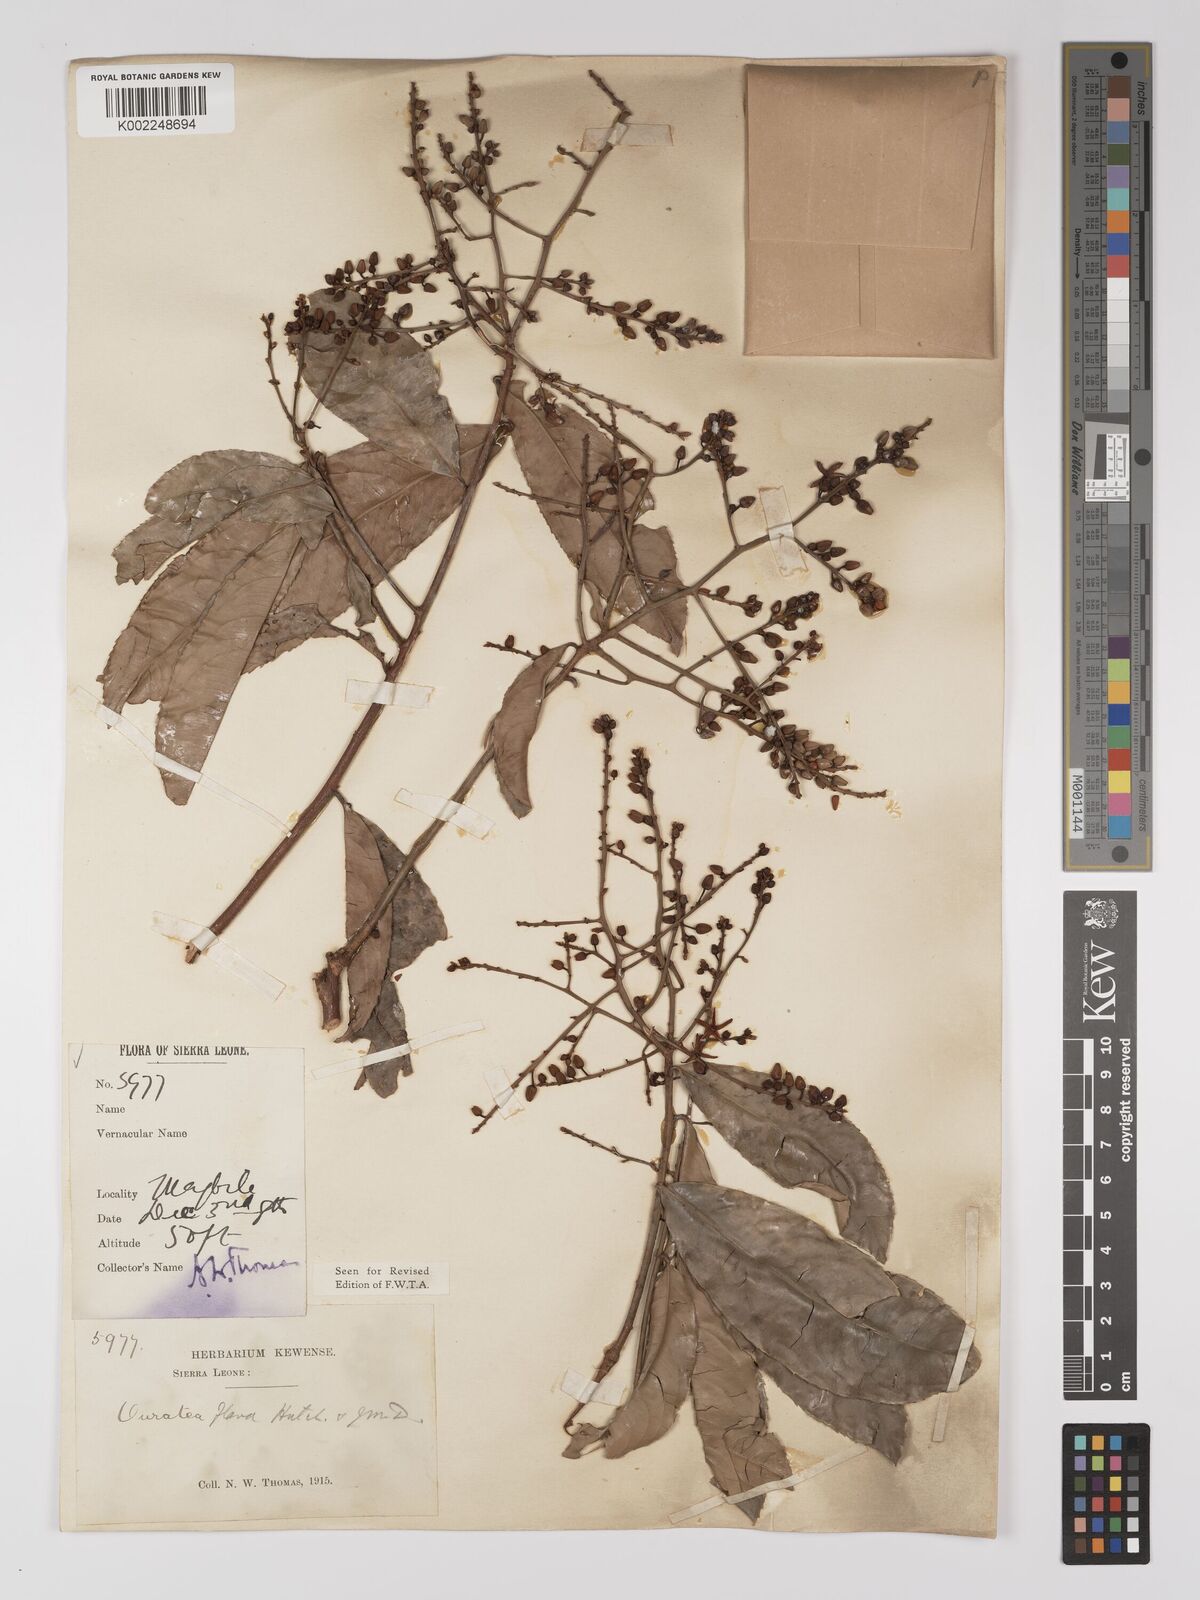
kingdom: Plantae
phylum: Tracheophyta
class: Magnoliopsida
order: Malpighiales
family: Ochnaceae
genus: Campylospermum
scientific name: Campylospermum flavum
